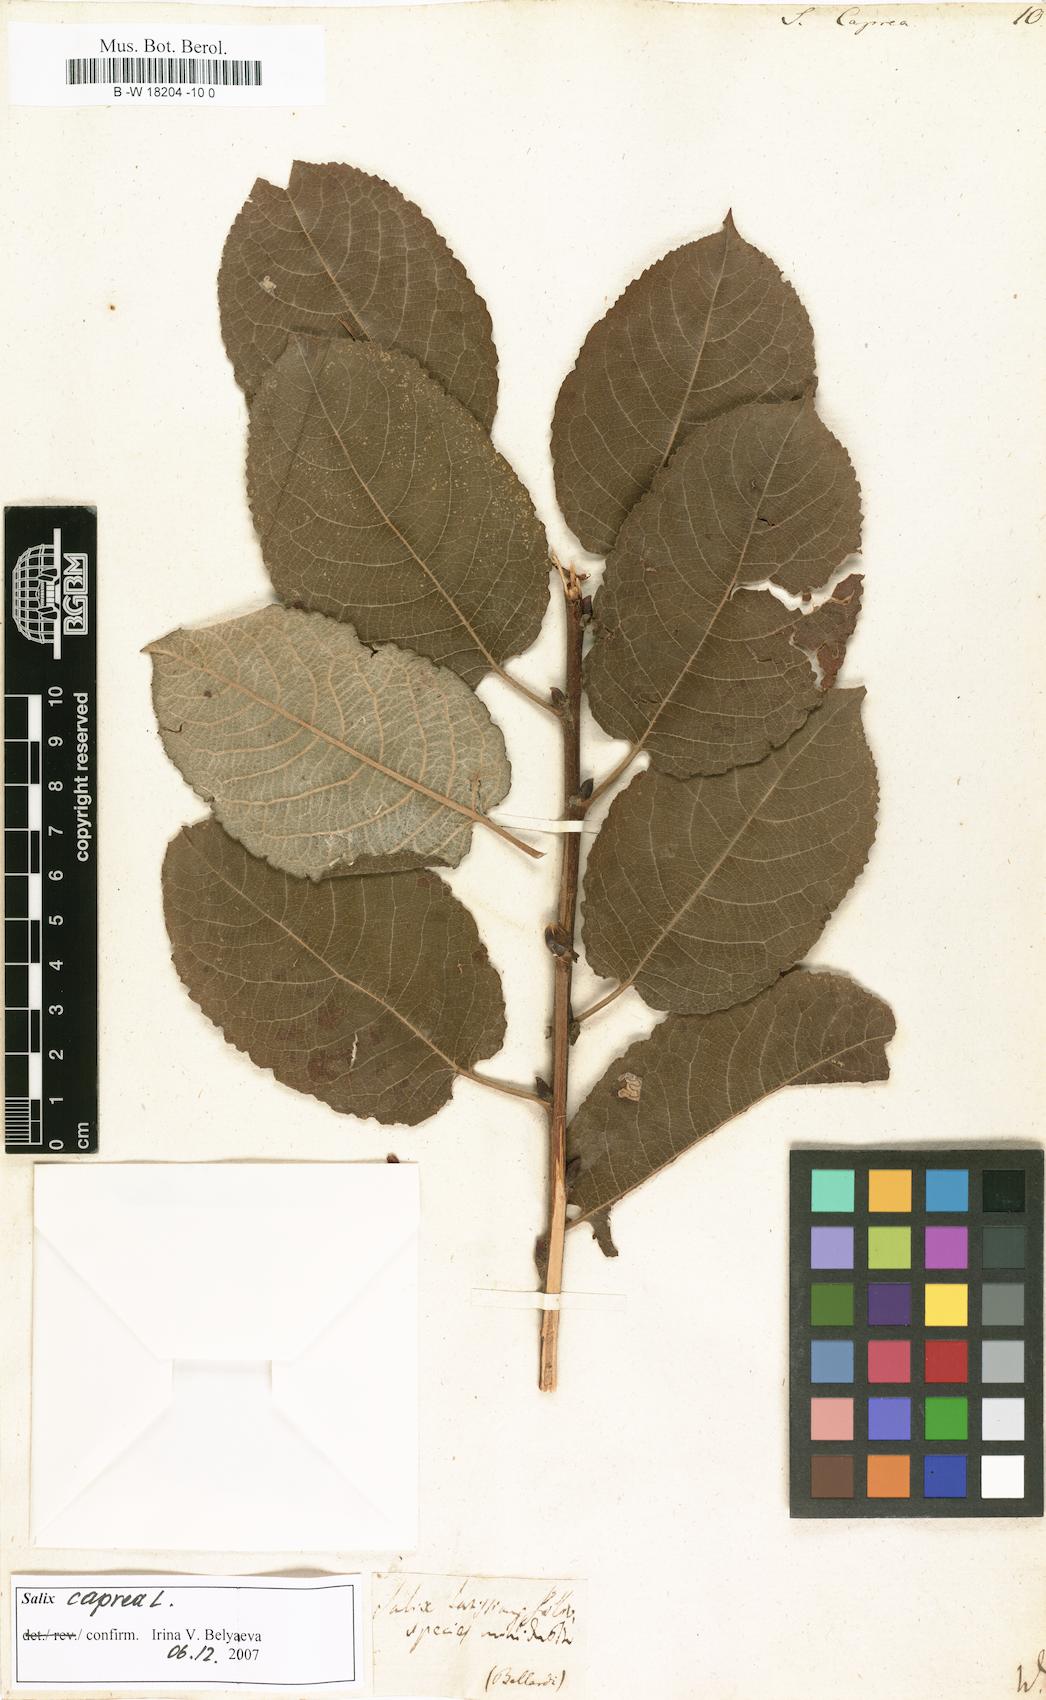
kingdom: Plantae
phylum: Tracheophyta
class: Magnoliopsida
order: Malpighiales
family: Salicaceae
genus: Salix
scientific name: Salix caprea
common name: Goat willow
